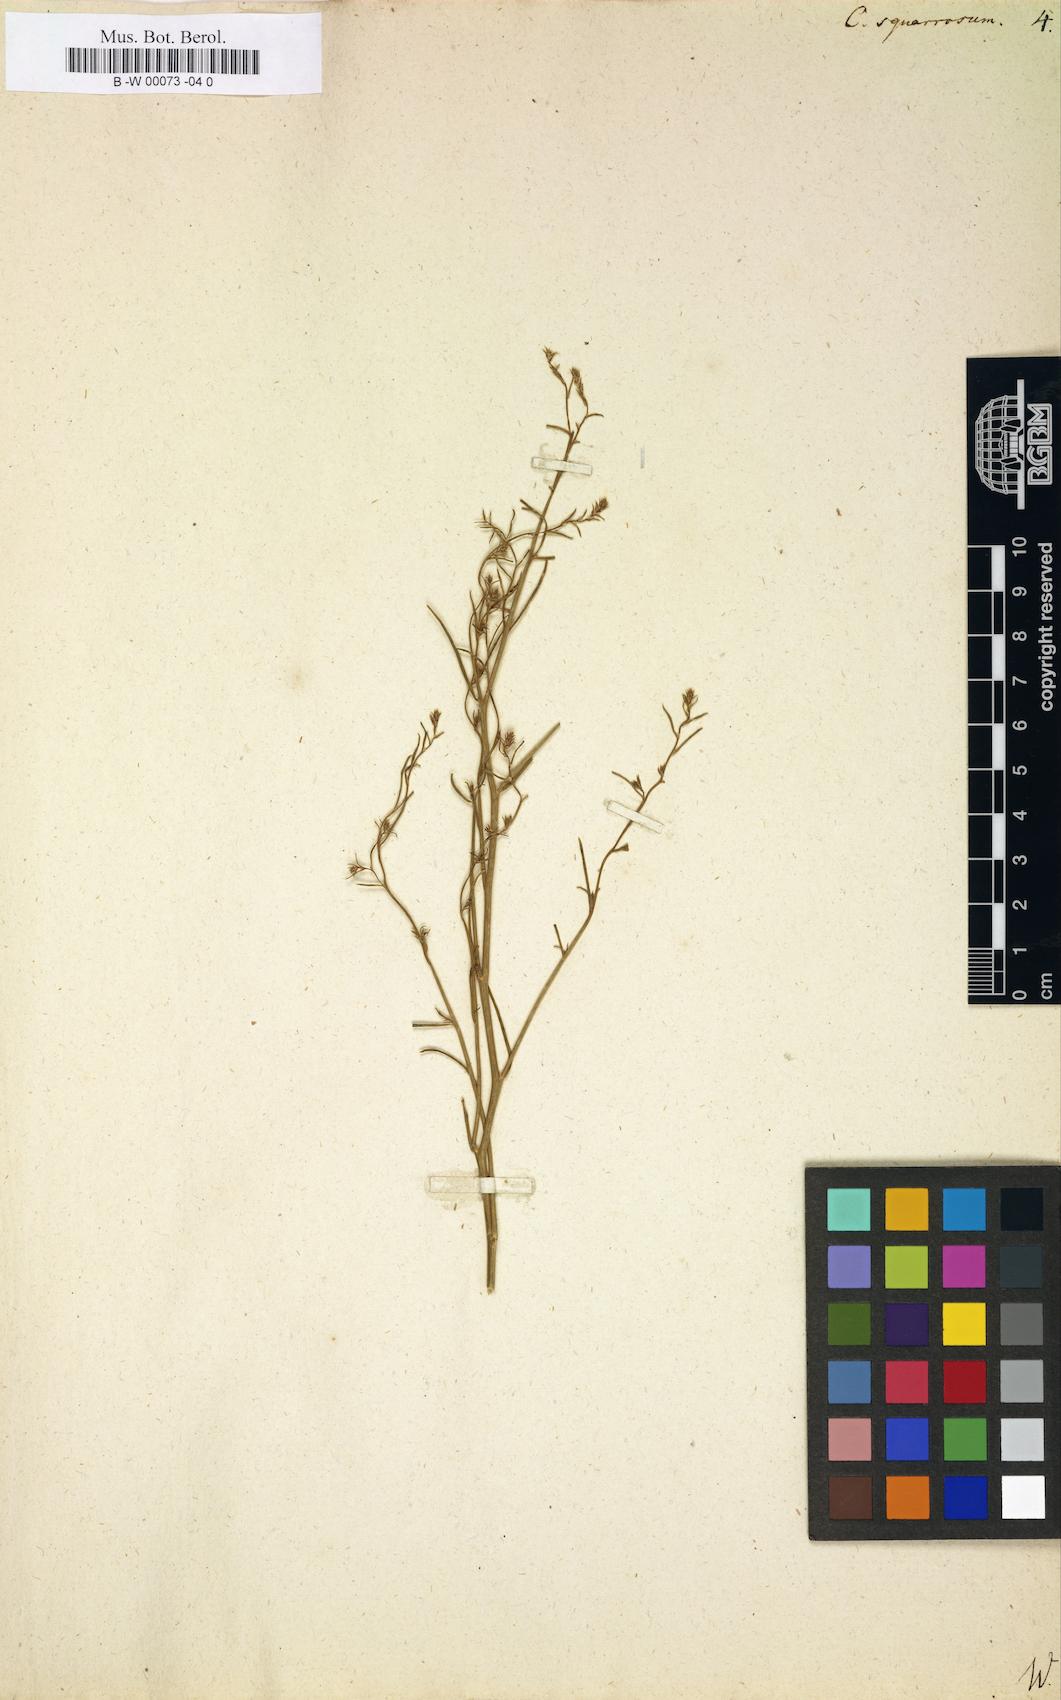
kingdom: Plantae
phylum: Tracheophyta
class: Magnoliopsida
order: Caryophyllales
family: Amaranthaceae
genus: Corispermum
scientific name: Corispermum squarrosum
